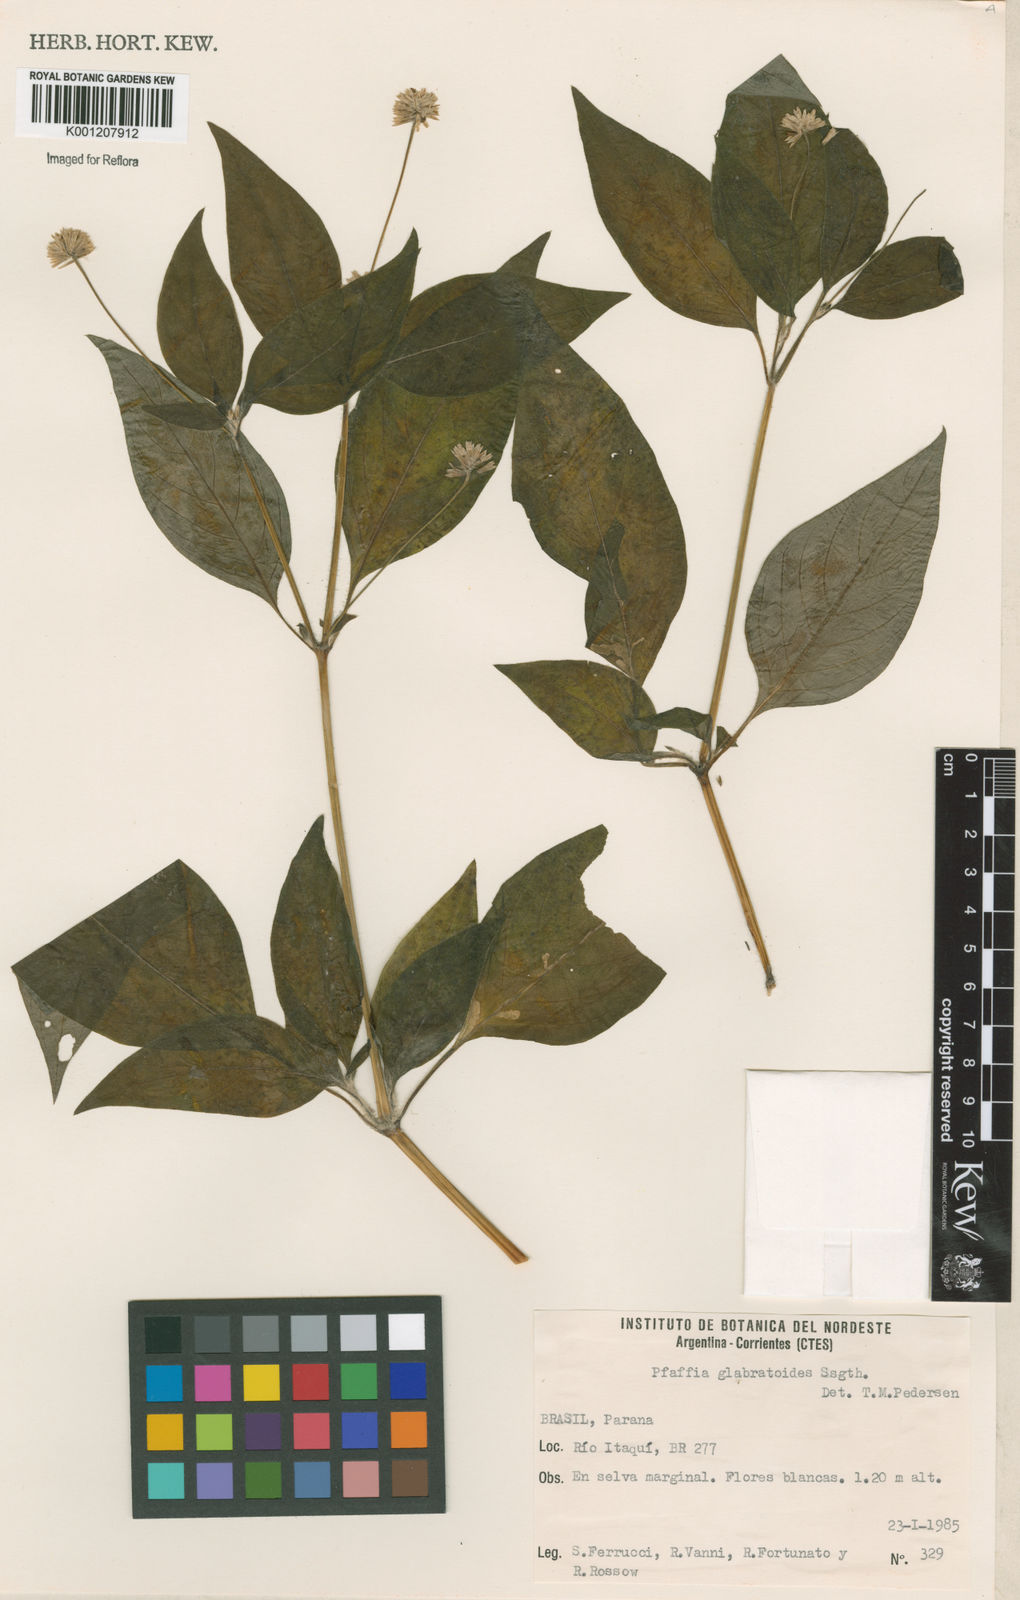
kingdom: Plantae
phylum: Tracheophyta
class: Magnoliopsida
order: Caryophyllales
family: Amaranthaceae
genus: Quaternella
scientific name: Quaternella glabratoides
